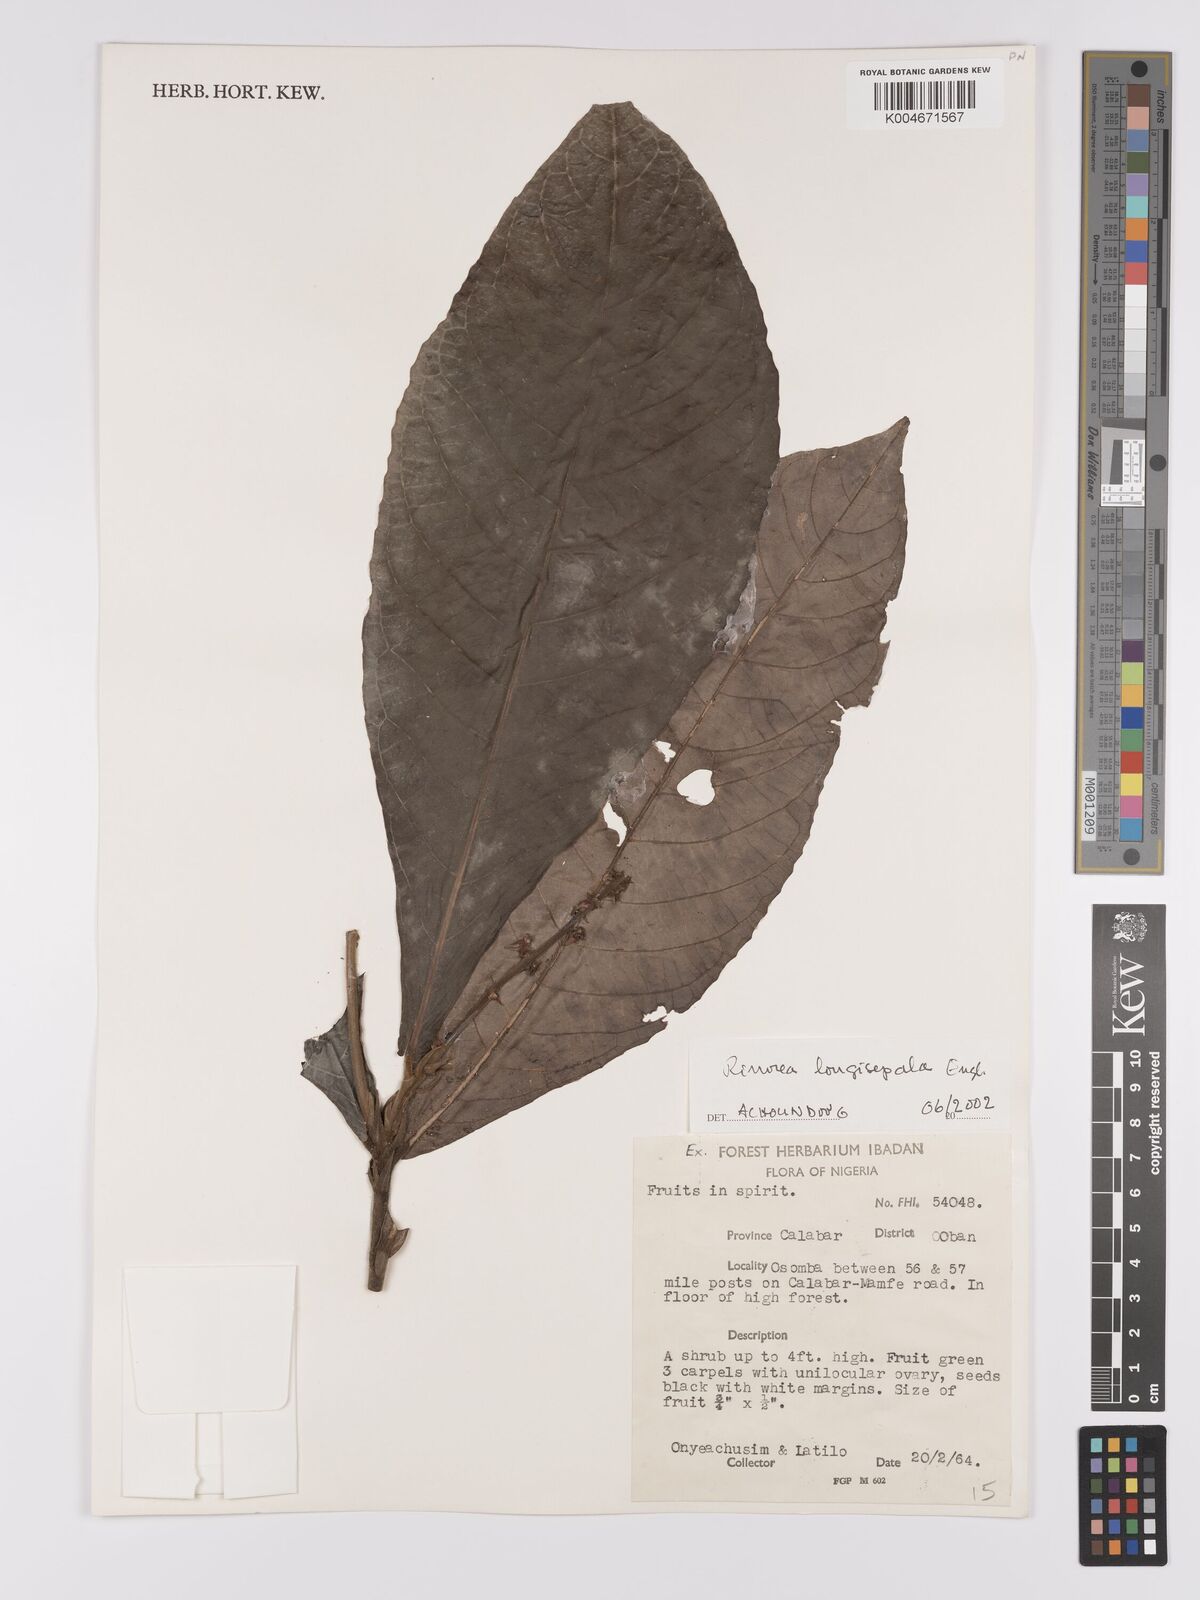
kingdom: Plantae
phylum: Tracheophyta
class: Magnoliopsida
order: Malpighiales
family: Violaceae
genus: Rinorea
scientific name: Rinorea longisepala
